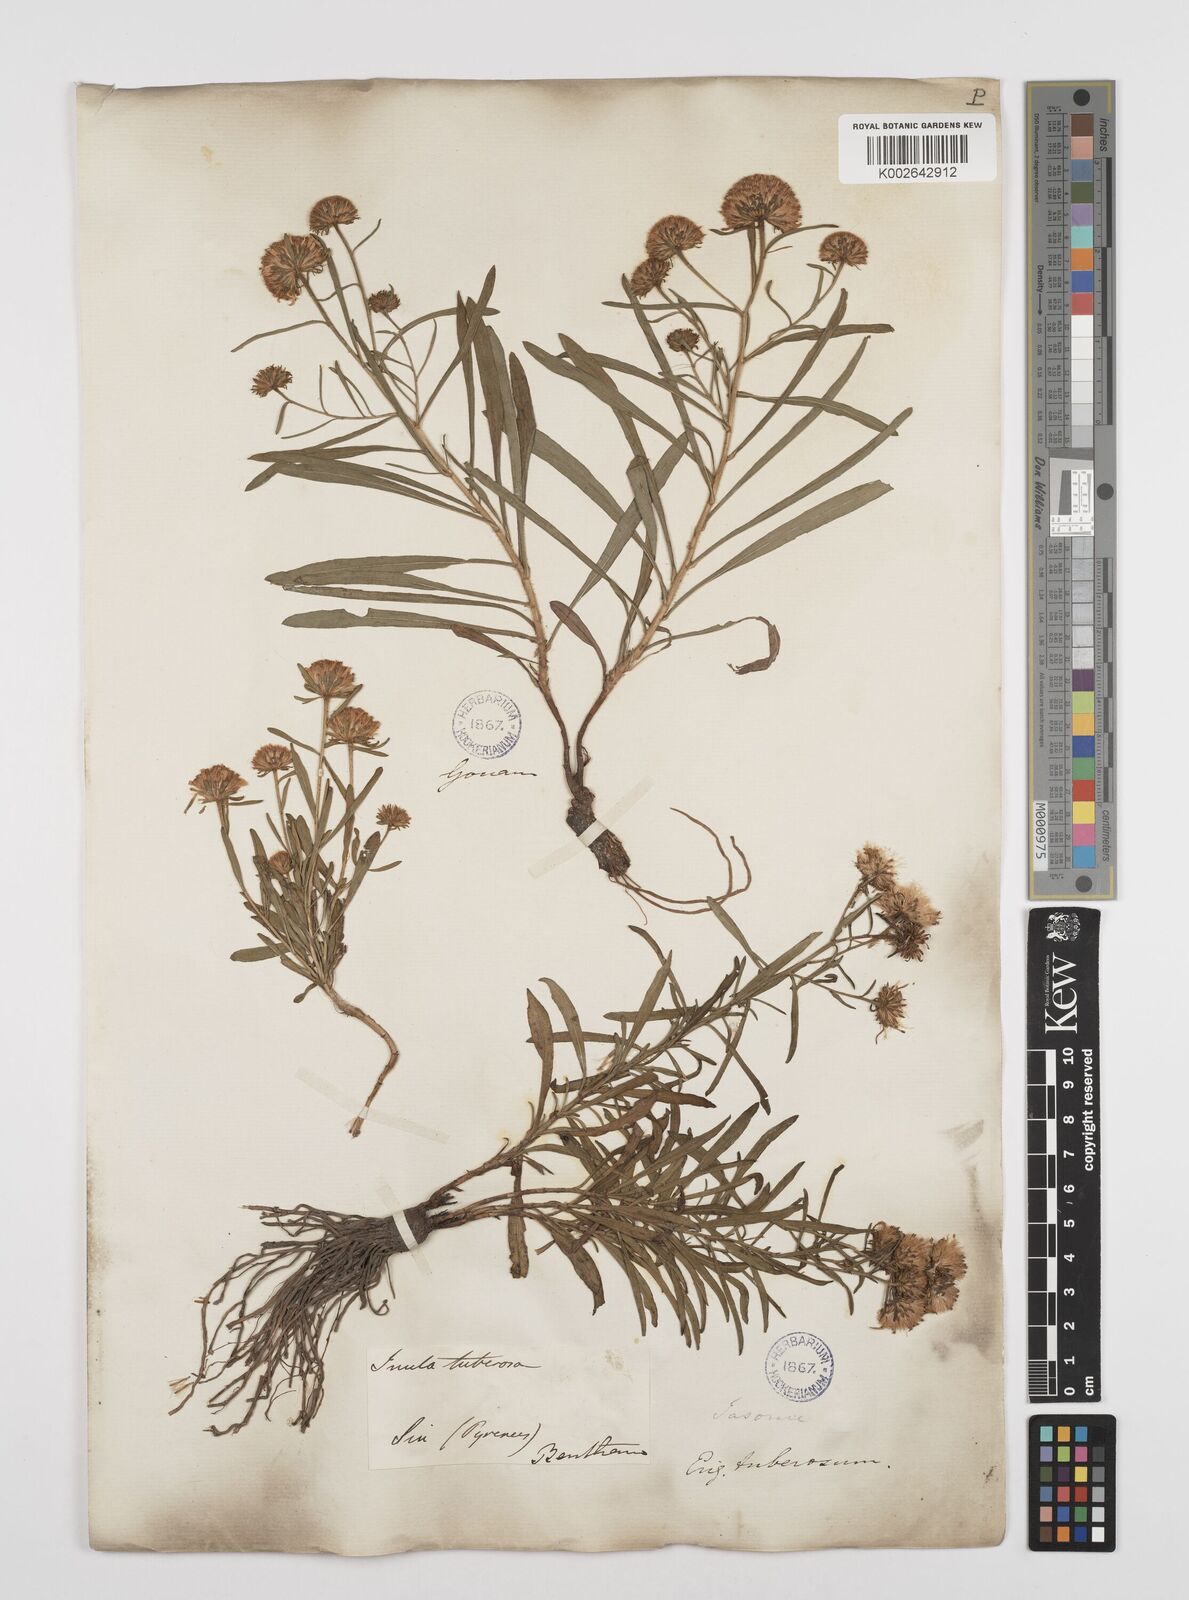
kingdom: Plantae
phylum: Tracheophyta
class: Magnoliopsida
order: Asterales
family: Asteraceae
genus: Jasonia
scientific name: Jasonia tuberosa
